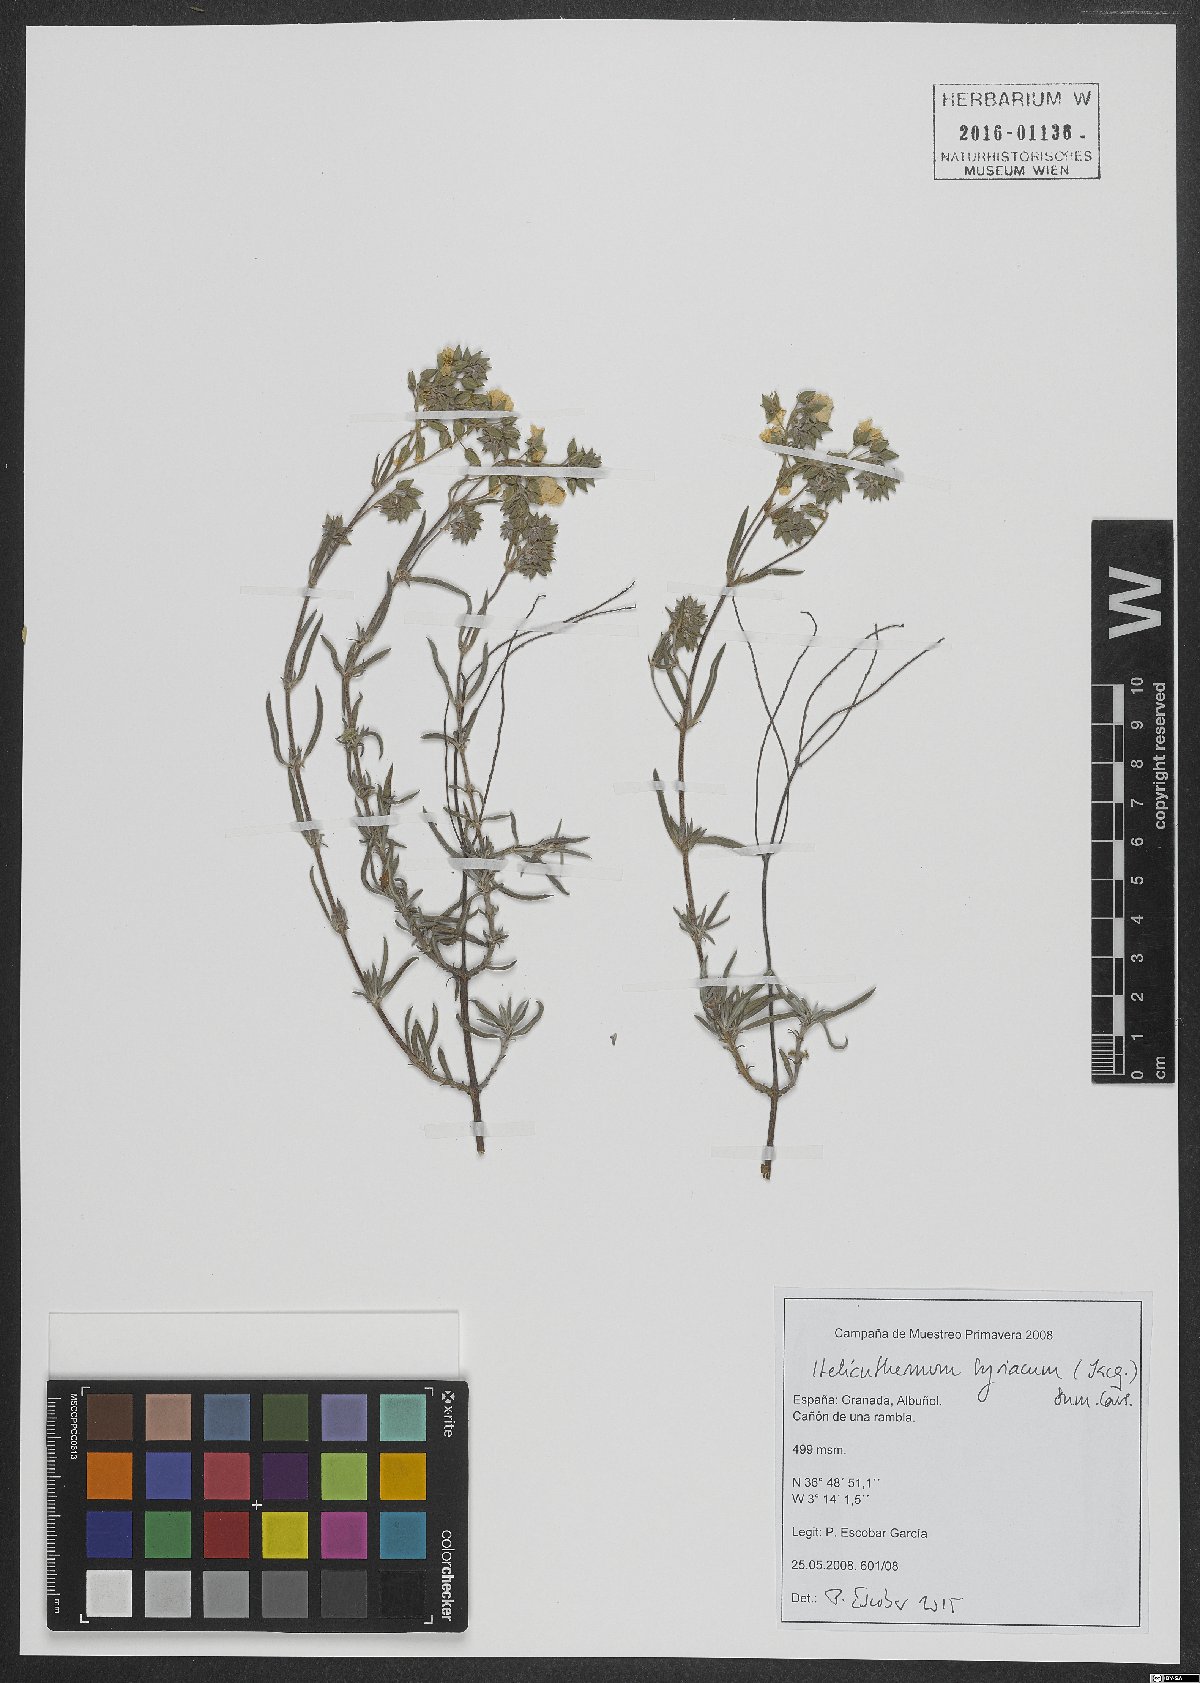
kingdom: Plantae
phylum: Tracheophyta
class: Magnoliopsida
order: Malvales
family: Cistaceae
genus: Helianthemum
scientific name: Helianthemum syriacum
